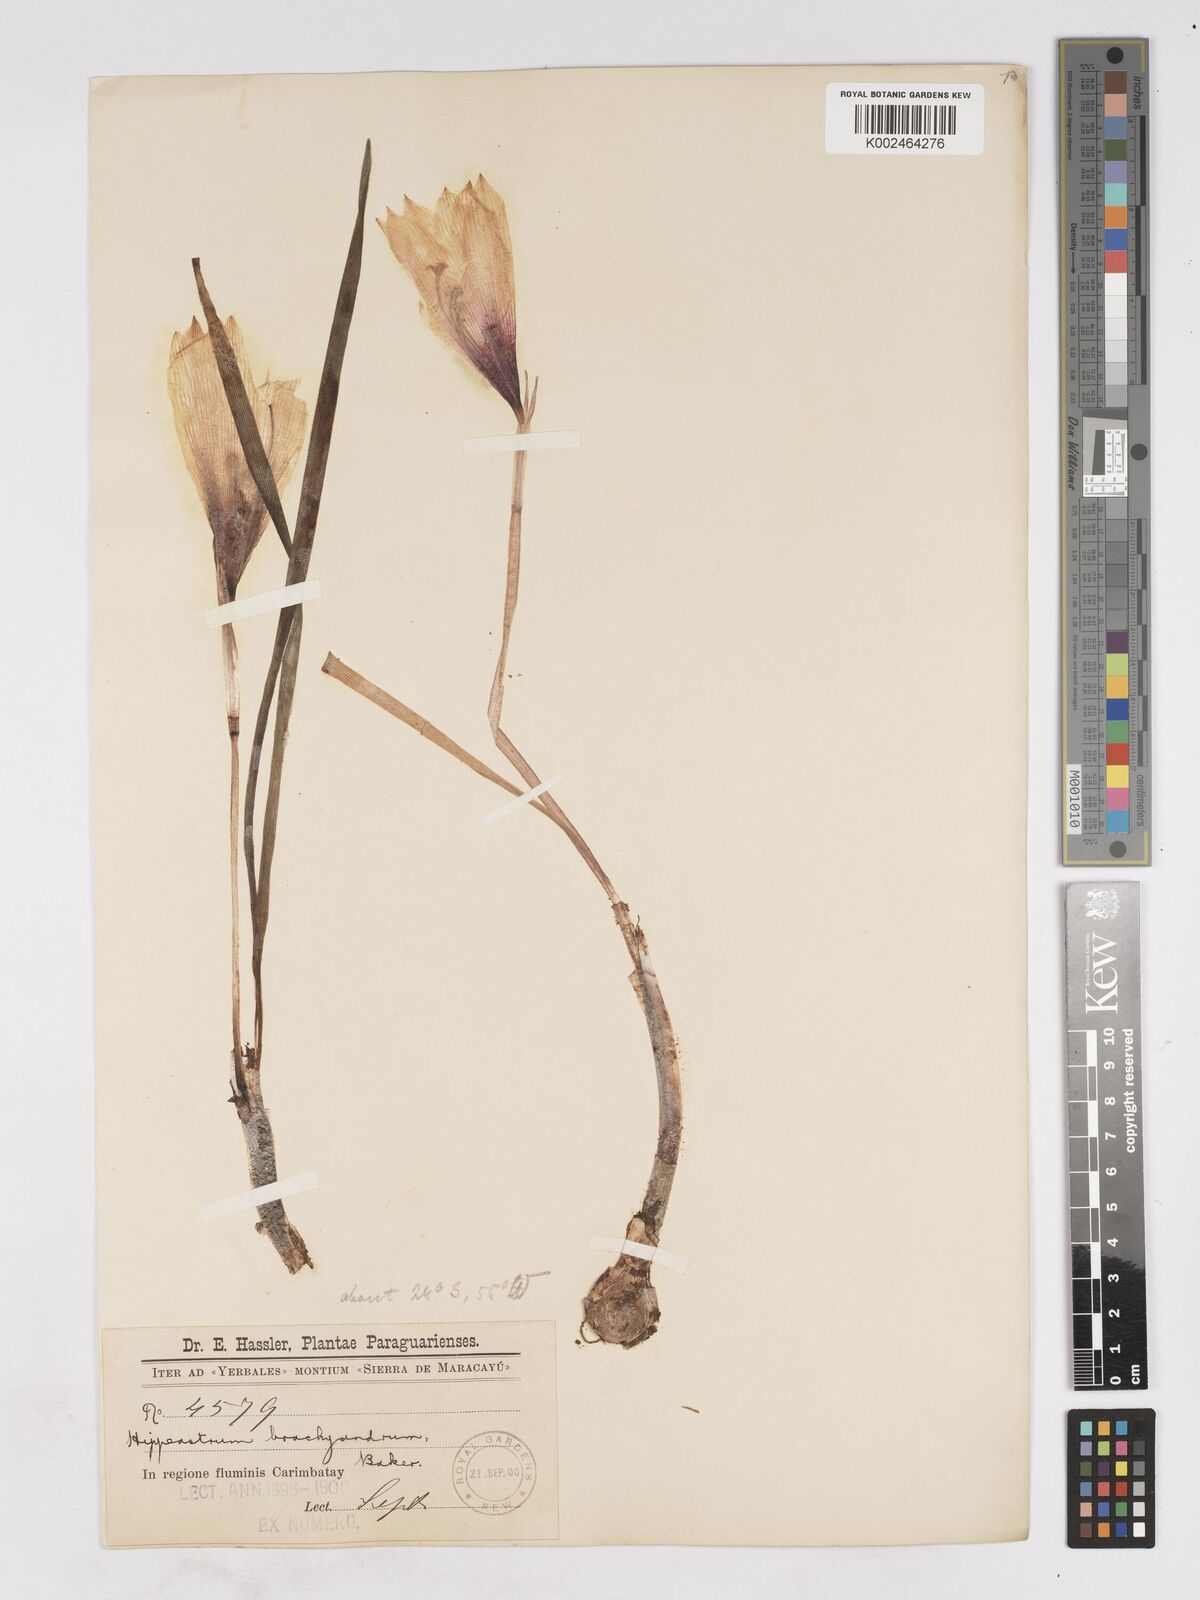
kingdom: Plantae
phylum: Tracheophyta
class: Liliopsida
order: Asparagales
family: Amaryllidaceae
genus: Zephyranthes
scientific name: Zephyranthes brachyandra
